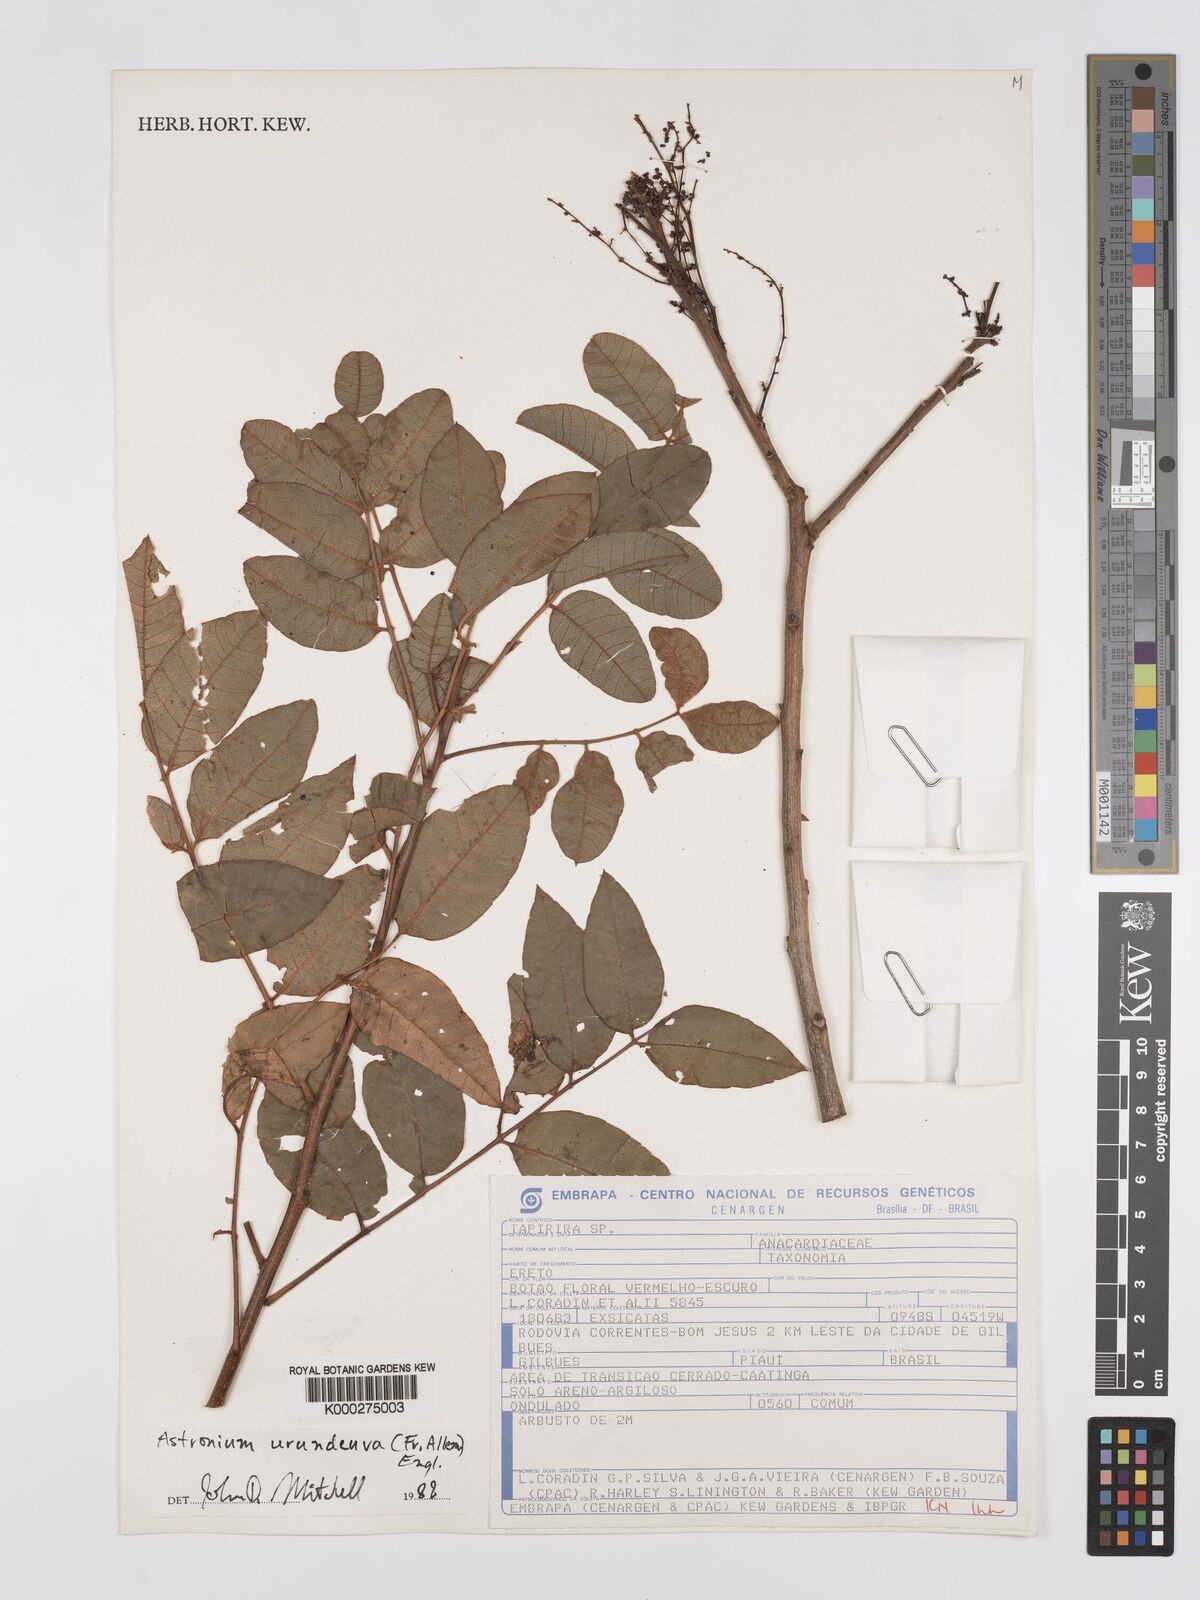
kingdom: Plantae
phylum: Tracheophyta
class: Magnoliopsida
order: Sapindales
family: Anacardiaceae
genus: Myracrodruon
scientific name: Myracrodruon urundeuva
